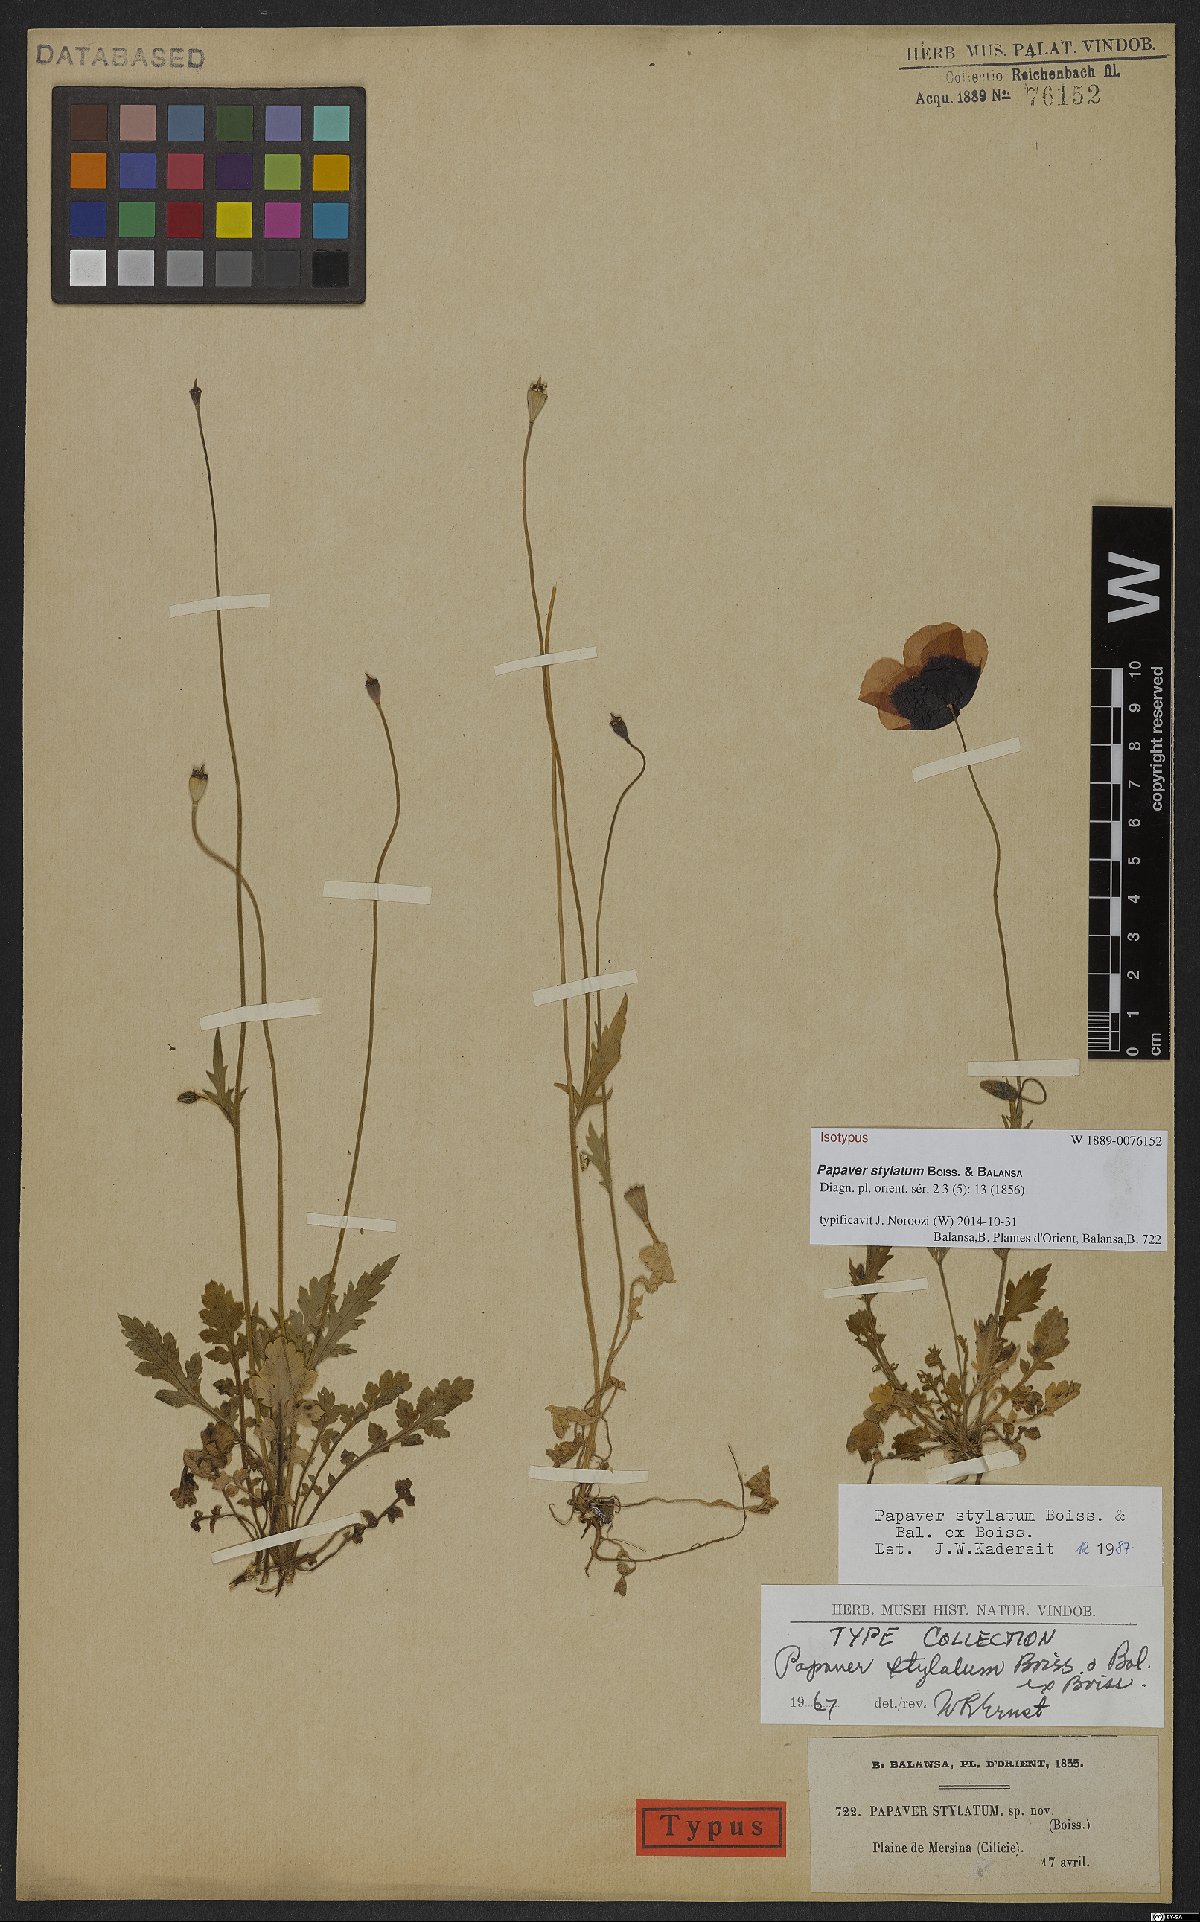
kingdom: Plantae
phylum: Tracheophyta
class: Magnoliopsida
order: Ranunculales
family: Papaveraceae
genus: Papaver
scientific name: Papaver umbonatum
